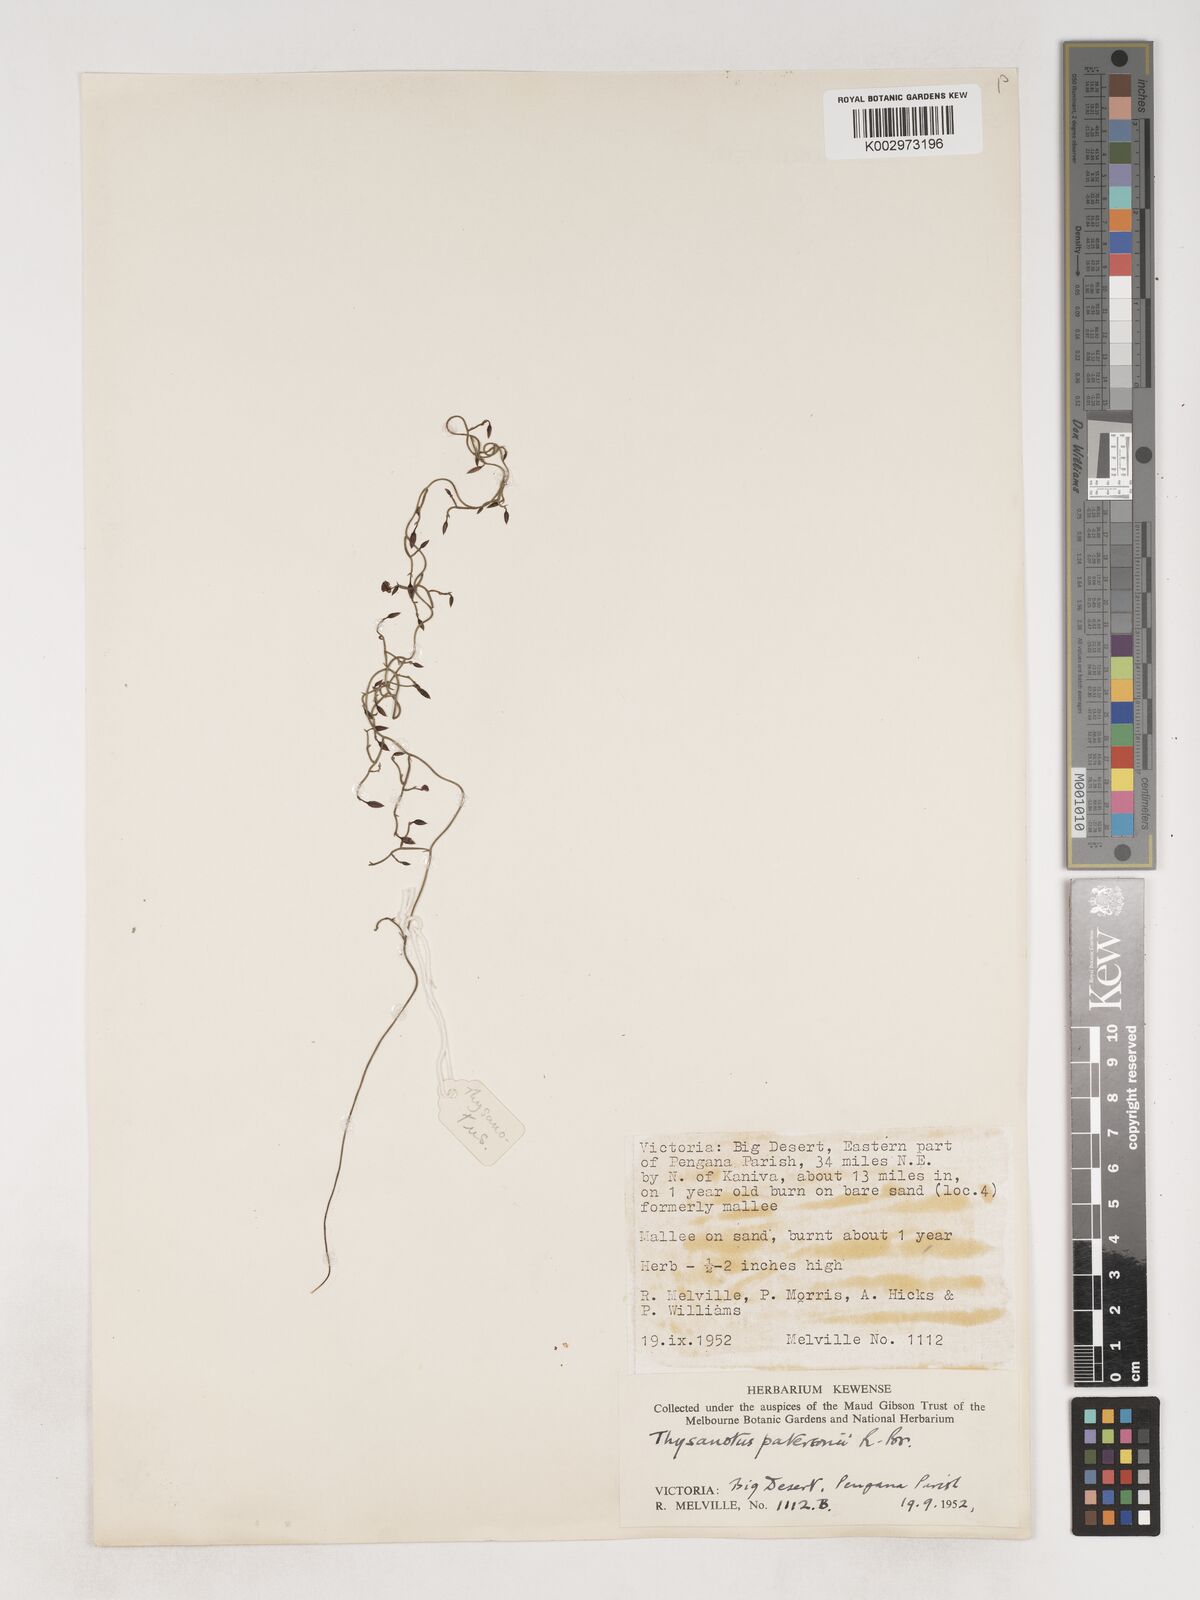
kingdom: Plantae
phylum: Tracheophyta
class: Liliopsida
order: Asparagales
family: Asparagaceae
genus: Thysanotus
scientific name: Thysanotus patersonii
